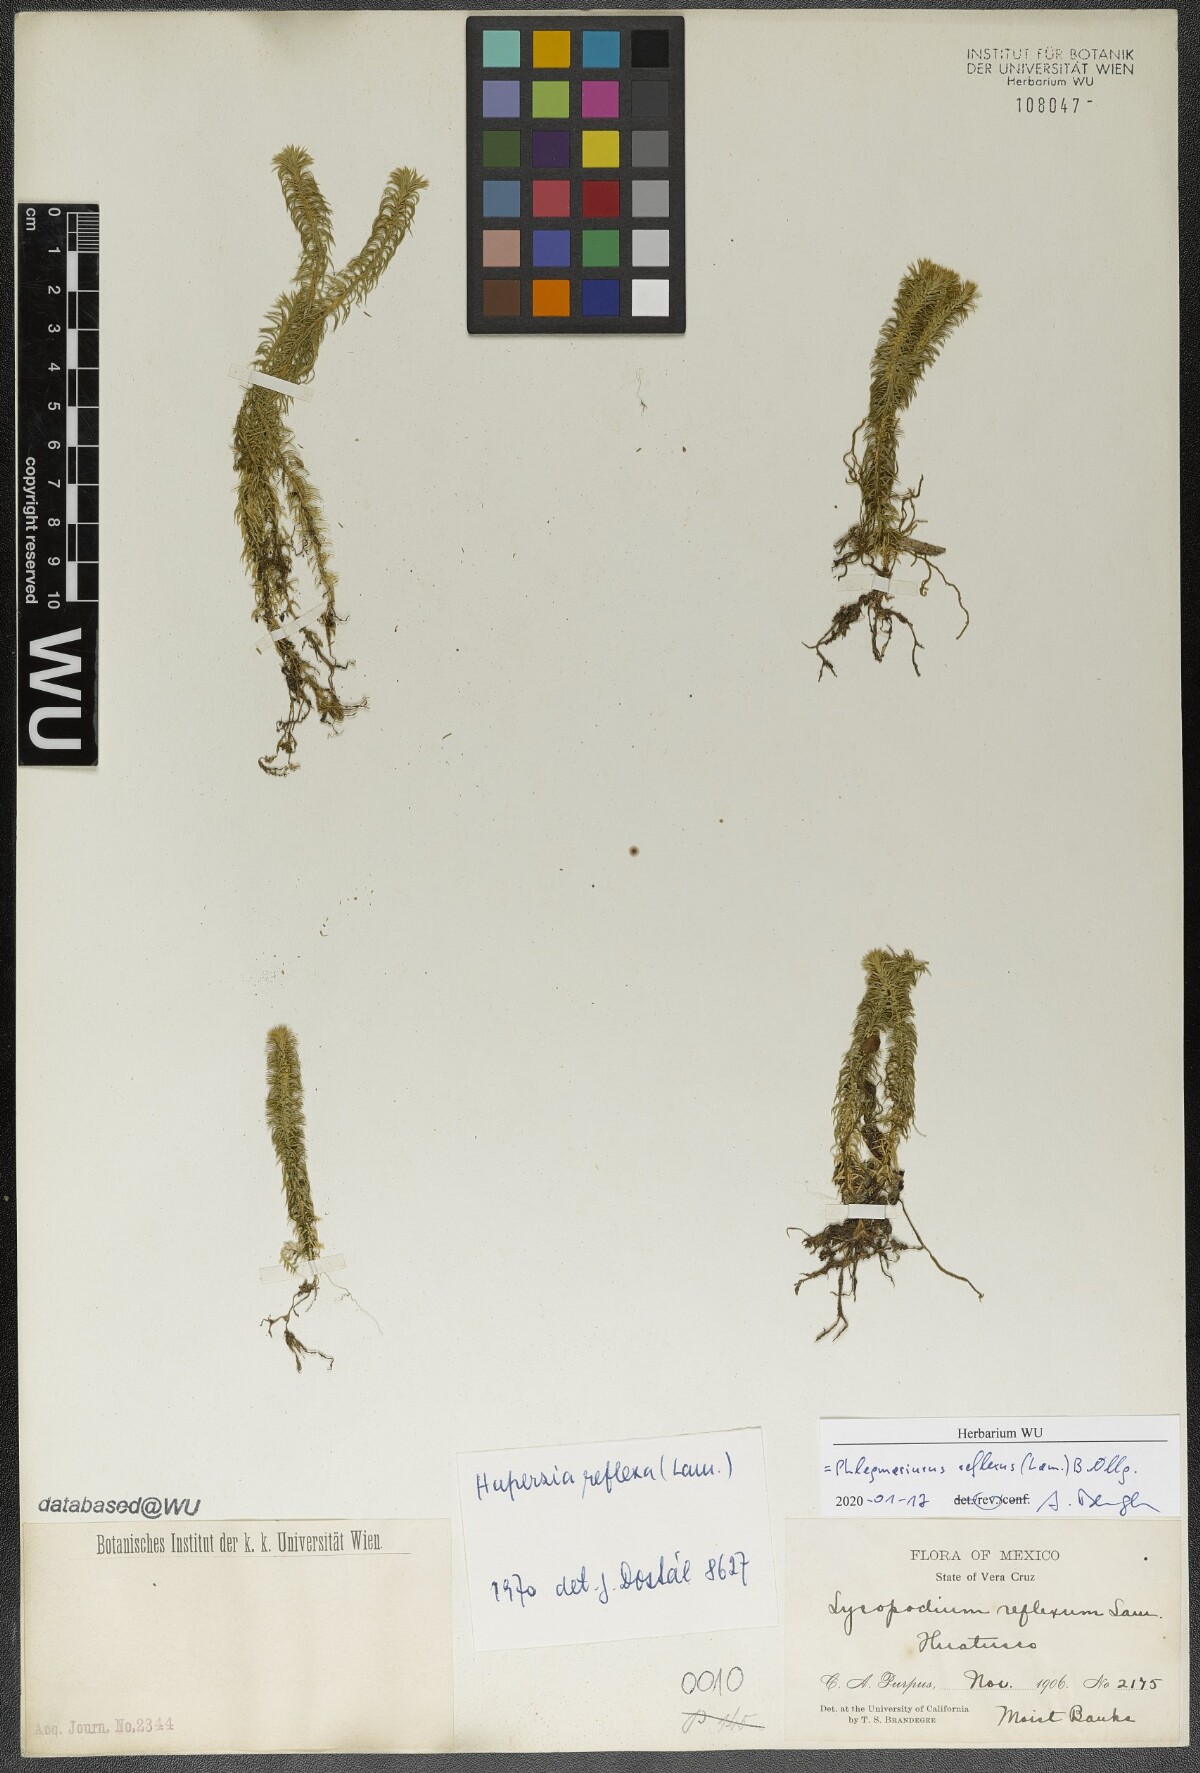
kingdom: Plantae
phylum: Tracheophyta
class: Lycopodiopsida
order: Lycopodiales
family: Lycopodiaceae
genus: Phlegmariurus
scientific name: Phlegmariurus reflexus
